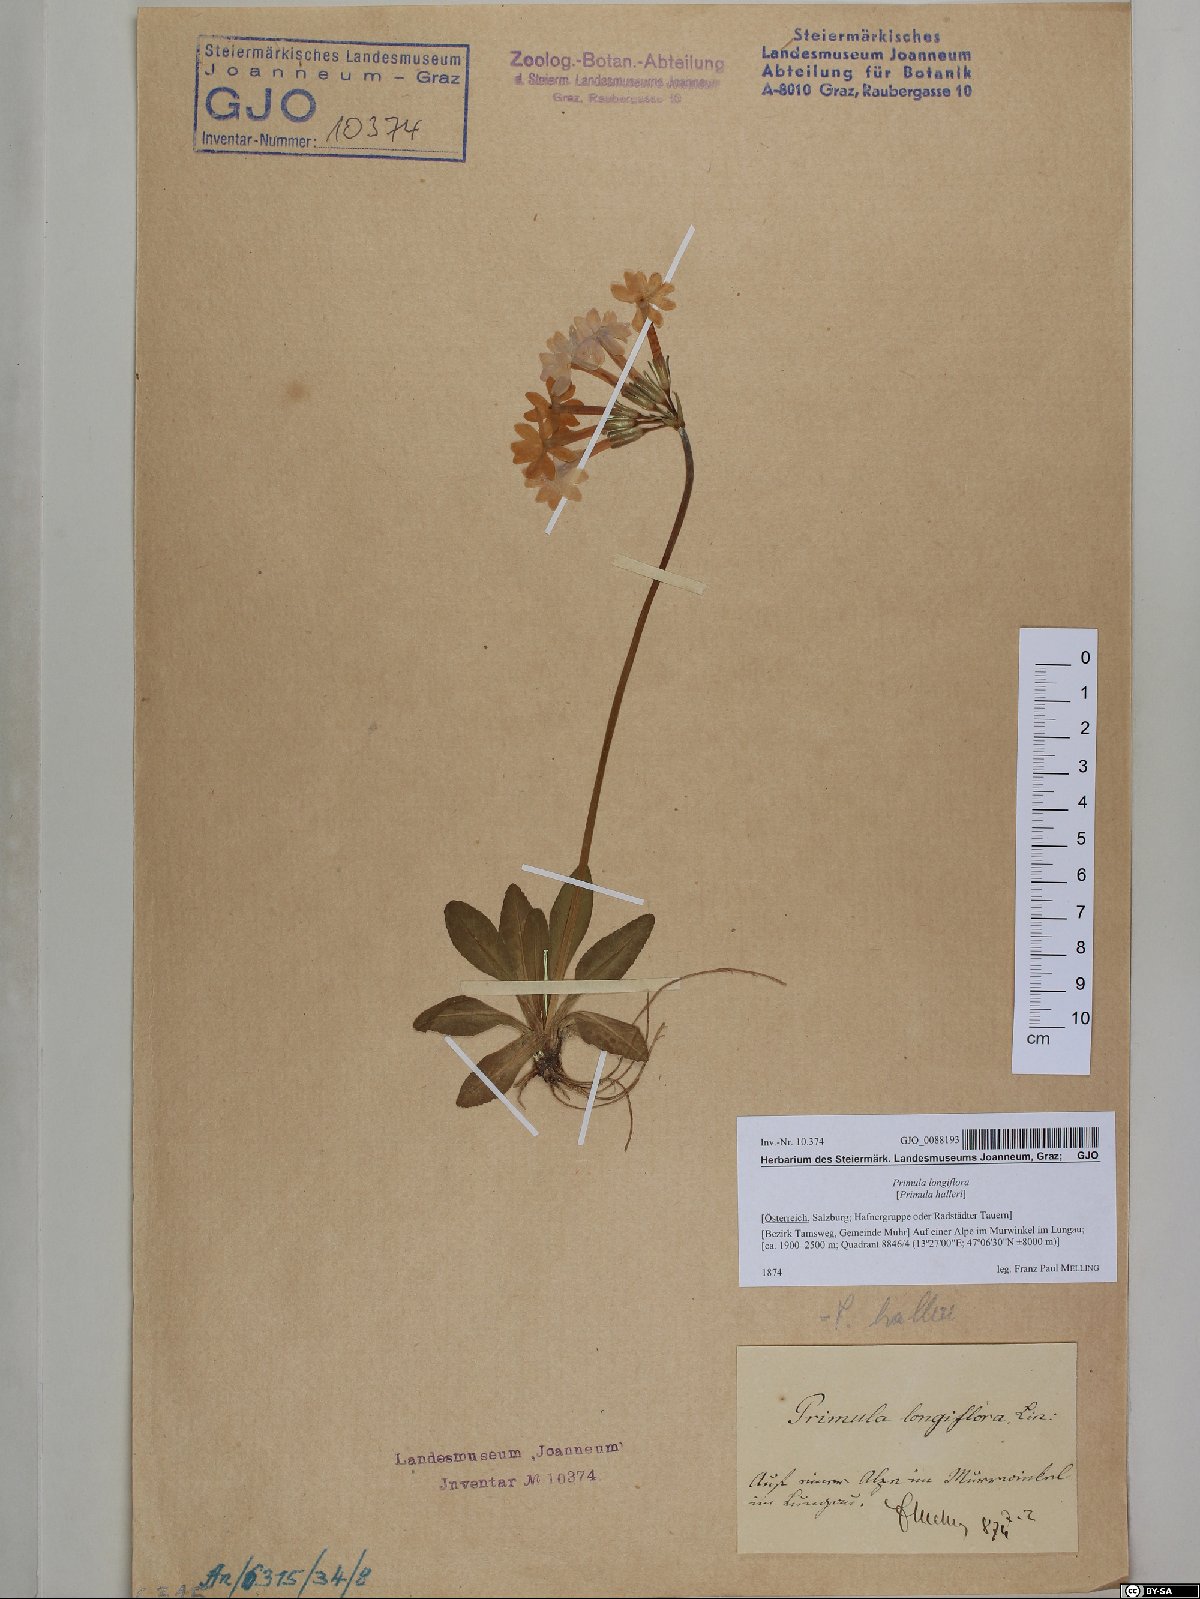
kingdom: Plantae
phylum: Tracheophyta
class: Magnoliopsida
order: Ericales
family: Primulaceae
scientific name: Primulaceae
